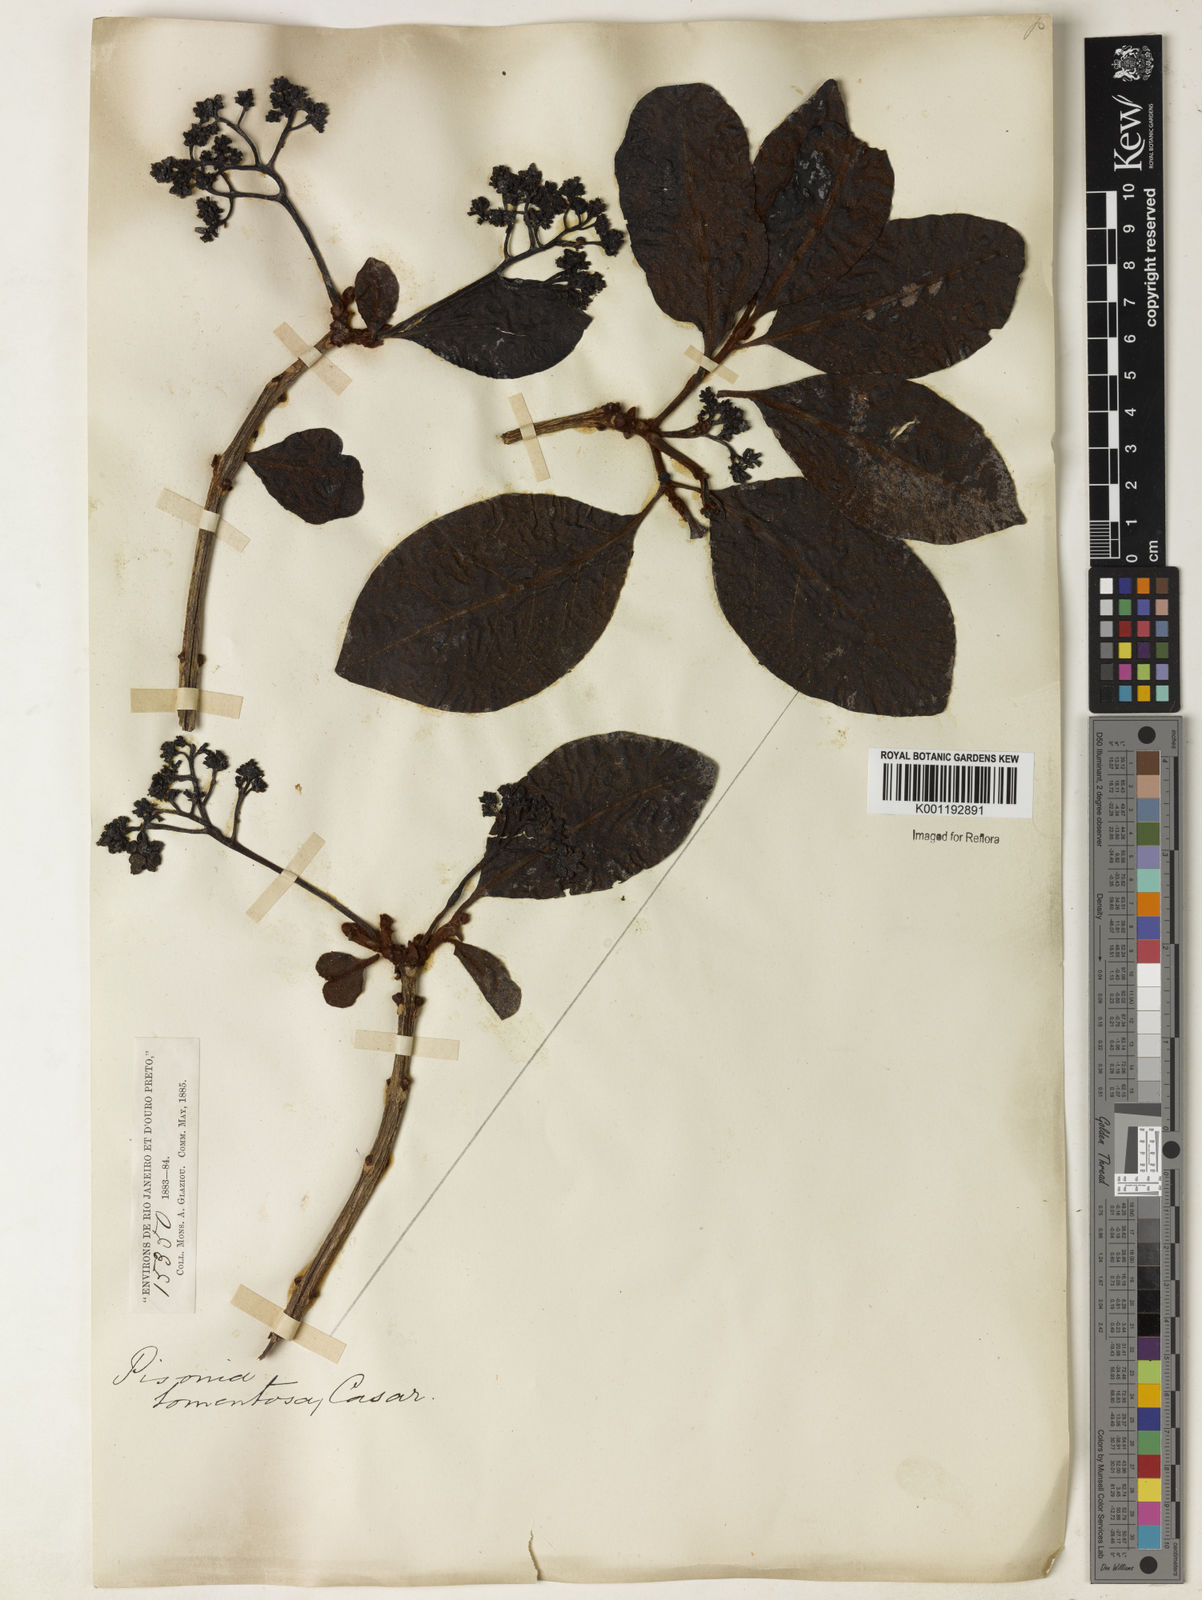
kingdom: Plantae
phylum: Tracheophyta
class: Magnoliopsida
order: Caryophyllales
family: Nyctaginaceae
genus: Guapira
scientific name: Guapira noxia
